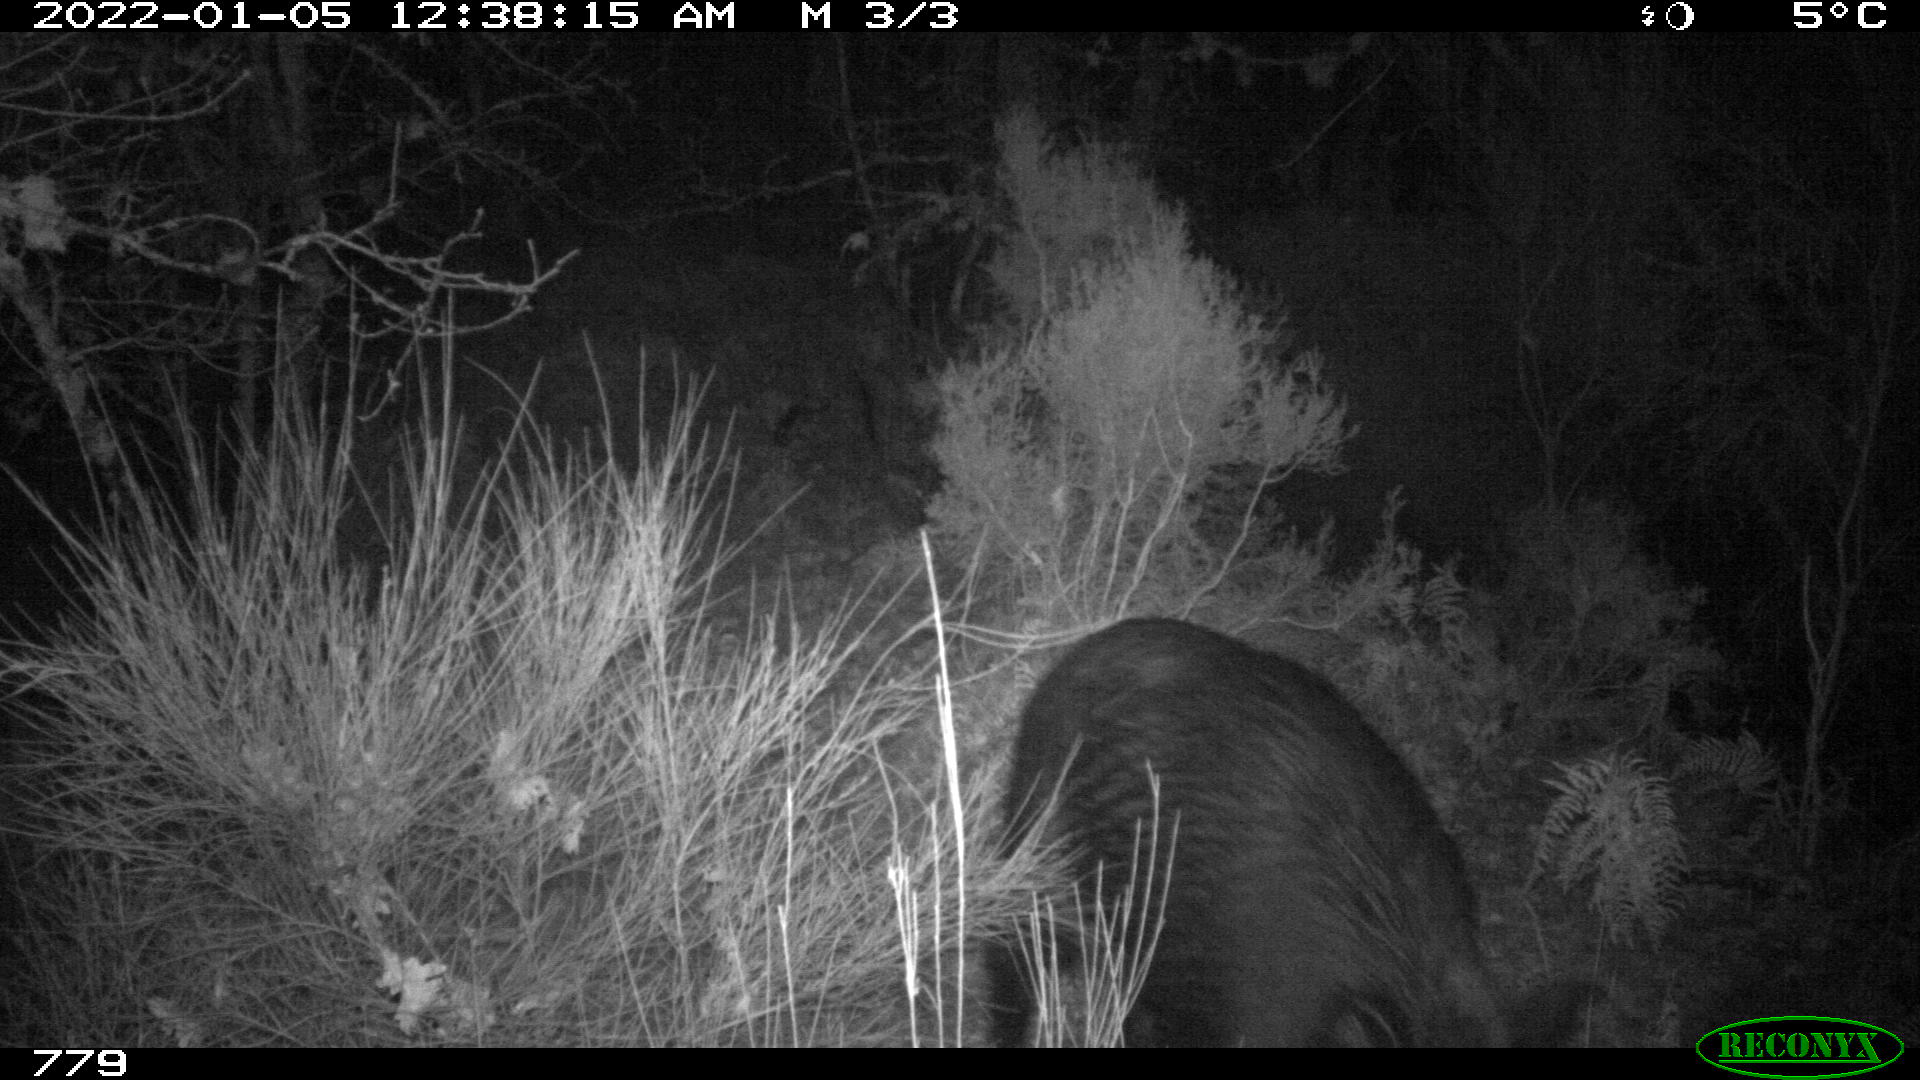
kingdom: Animalia
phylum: Chordata
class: Mammalia
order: Artiodactyla
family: Suidae
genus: Sus
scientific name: Sus scrofa
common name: Wild boar
